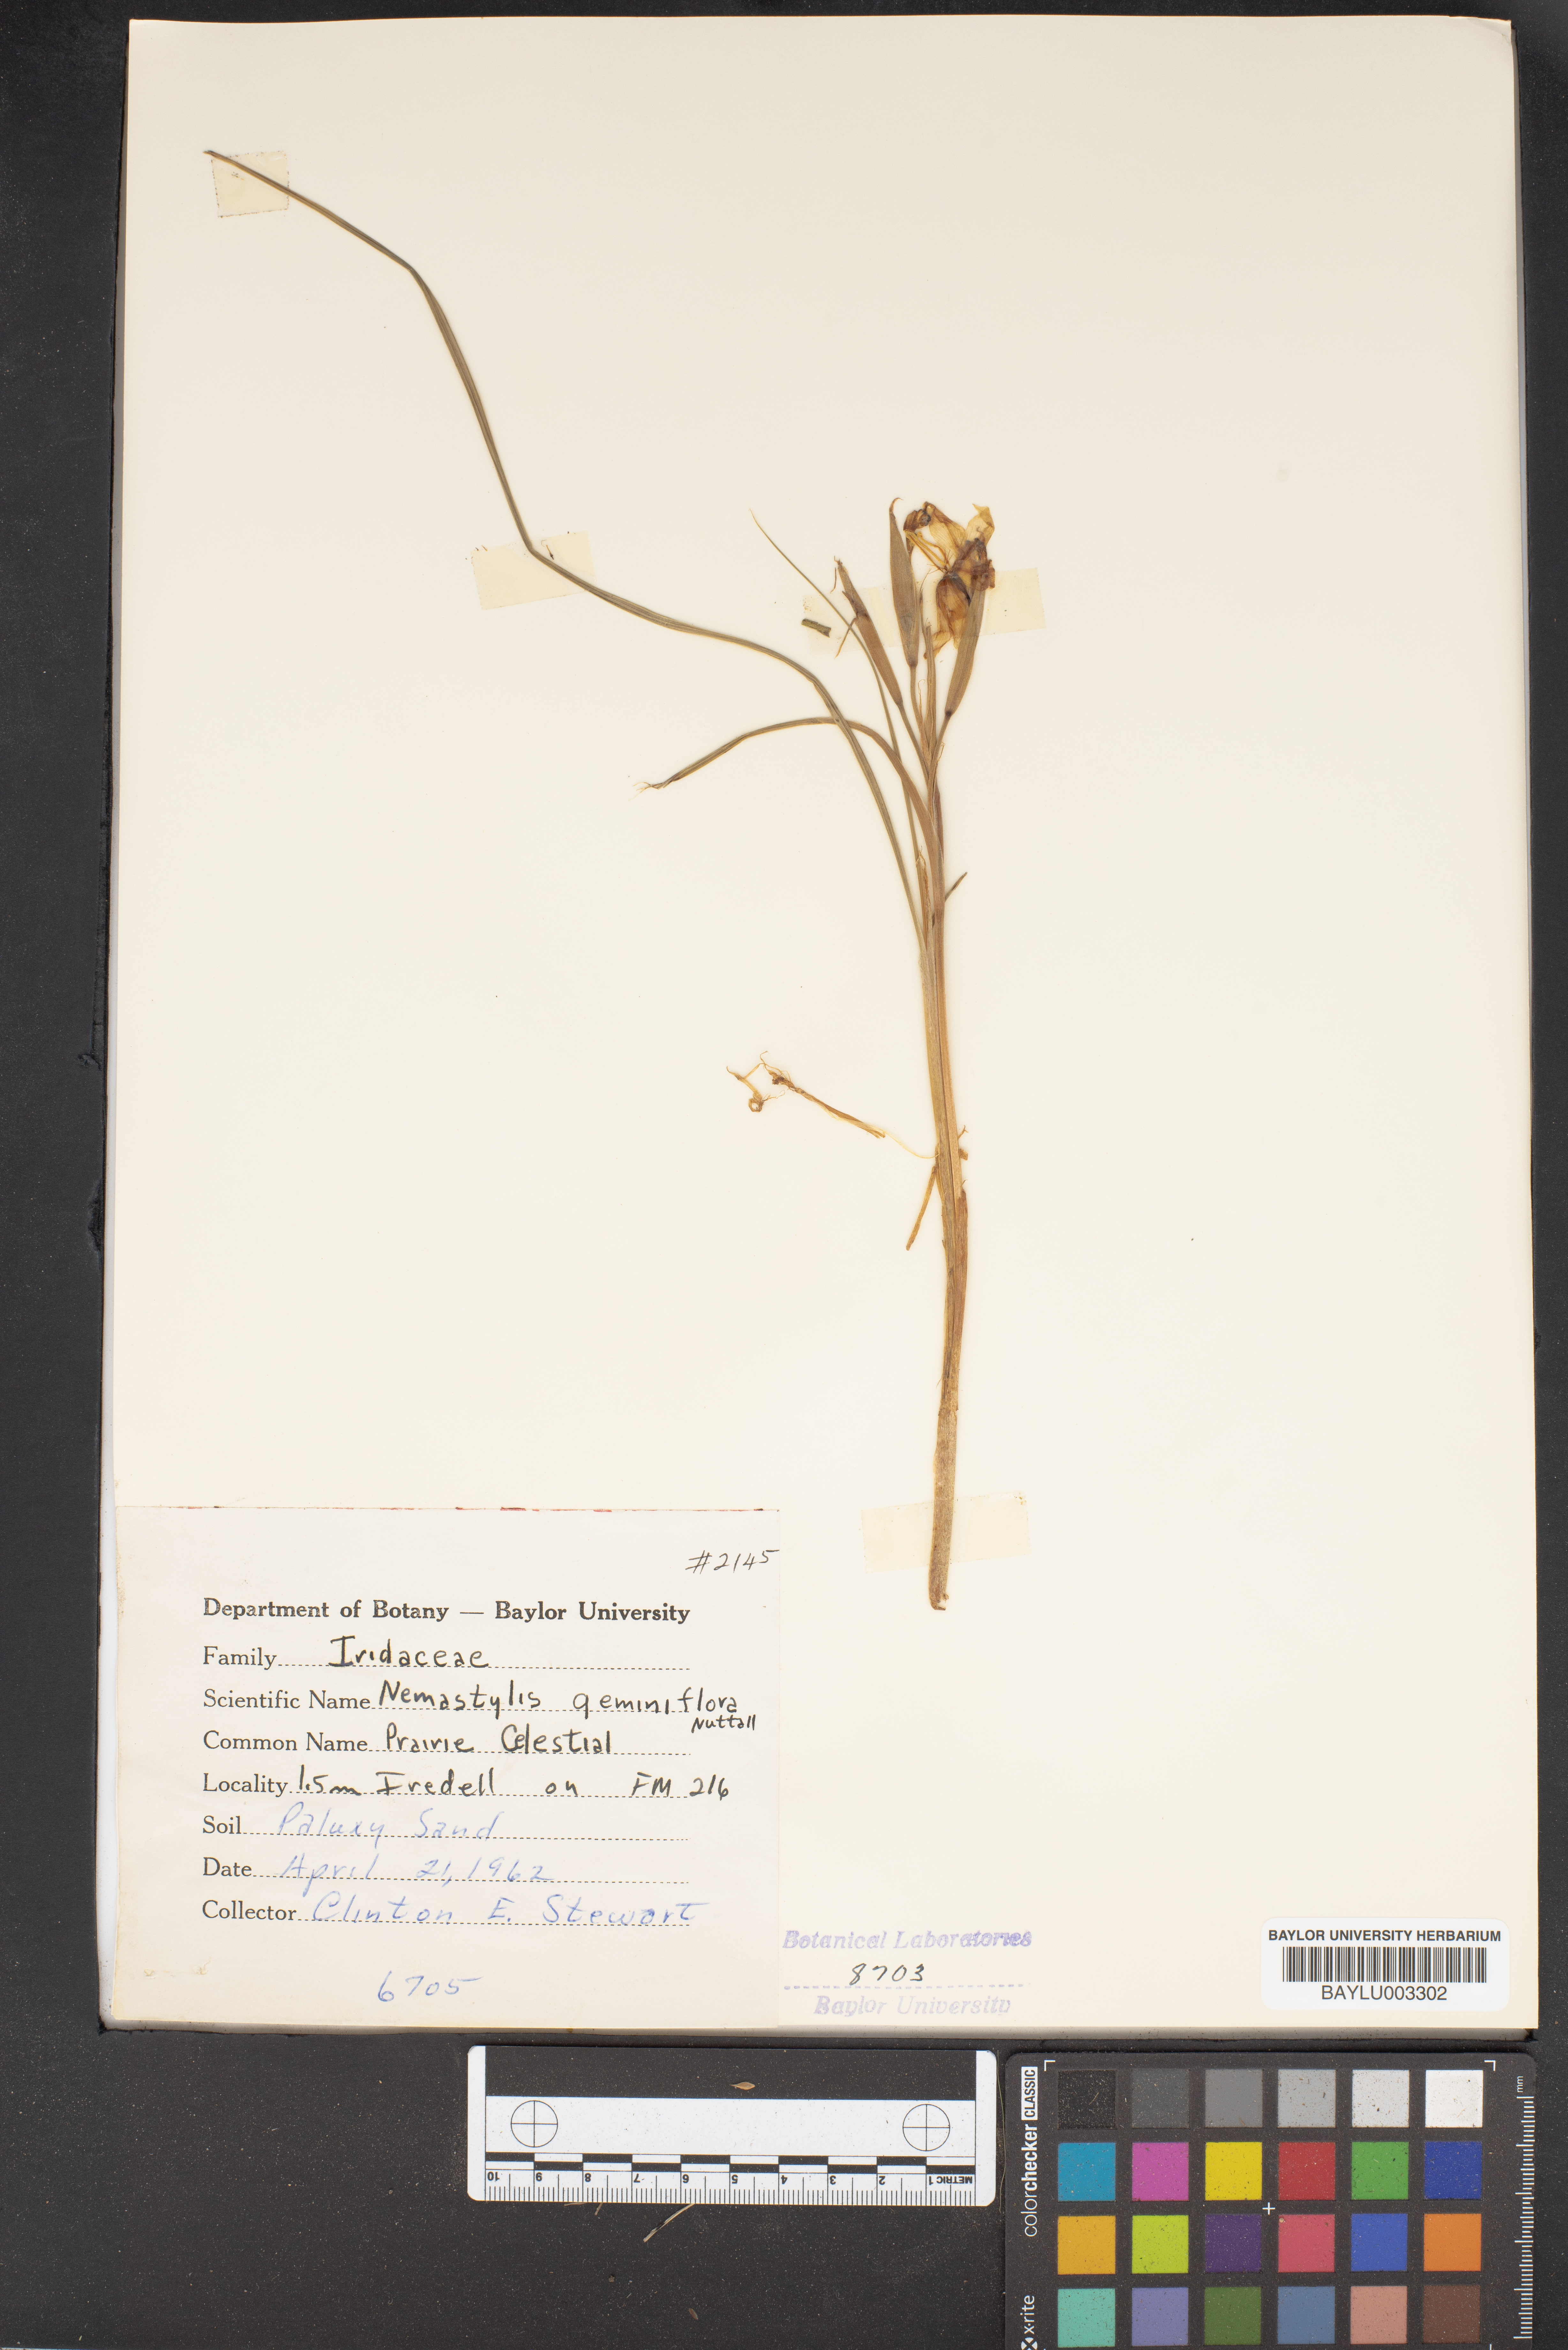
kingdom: Plantae
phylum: Tracheophyta
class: Liliopsida
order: Asparagales
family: Iridaceae
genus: Nemastylis
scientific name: Nemastylis geminiflora
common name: Prairie celestial
